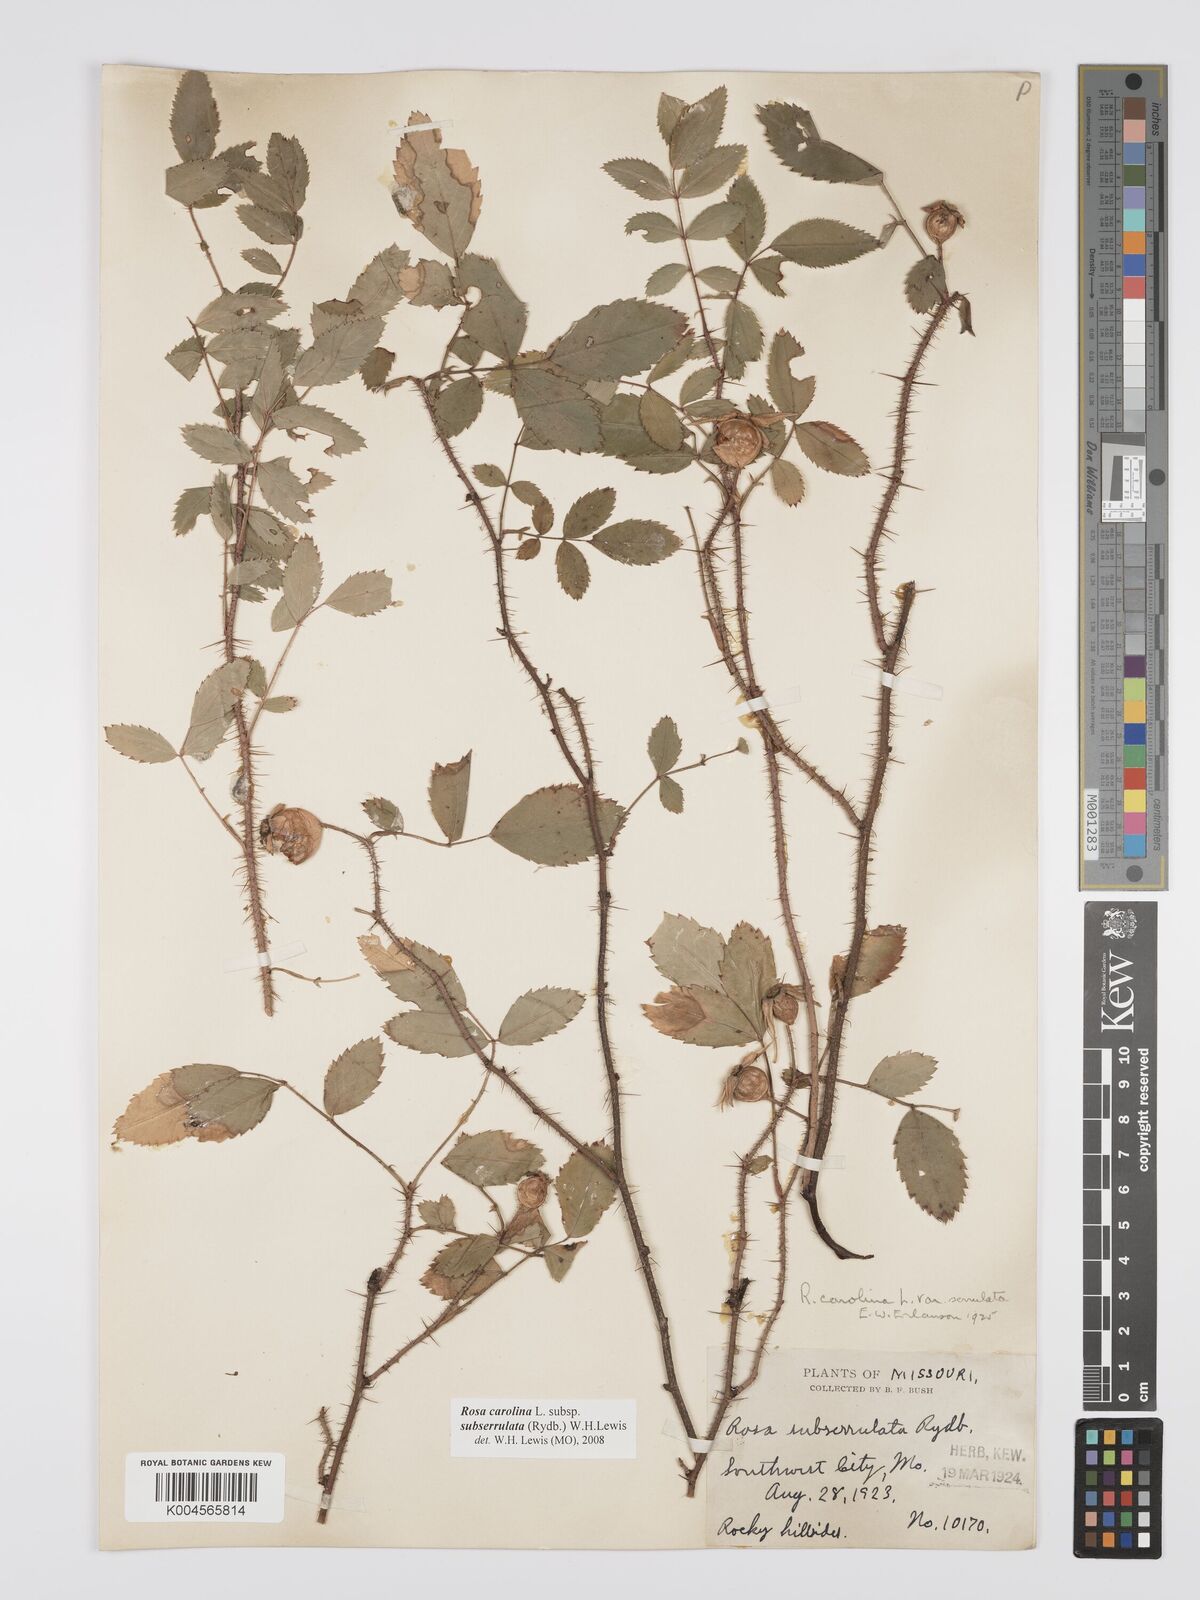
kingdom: Plantae
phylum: Tracheophyta
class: Magnoliopsida
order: Rosales
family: Rosaceae
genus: Rosa
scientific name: Rosa carolina
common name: Pasture rose
